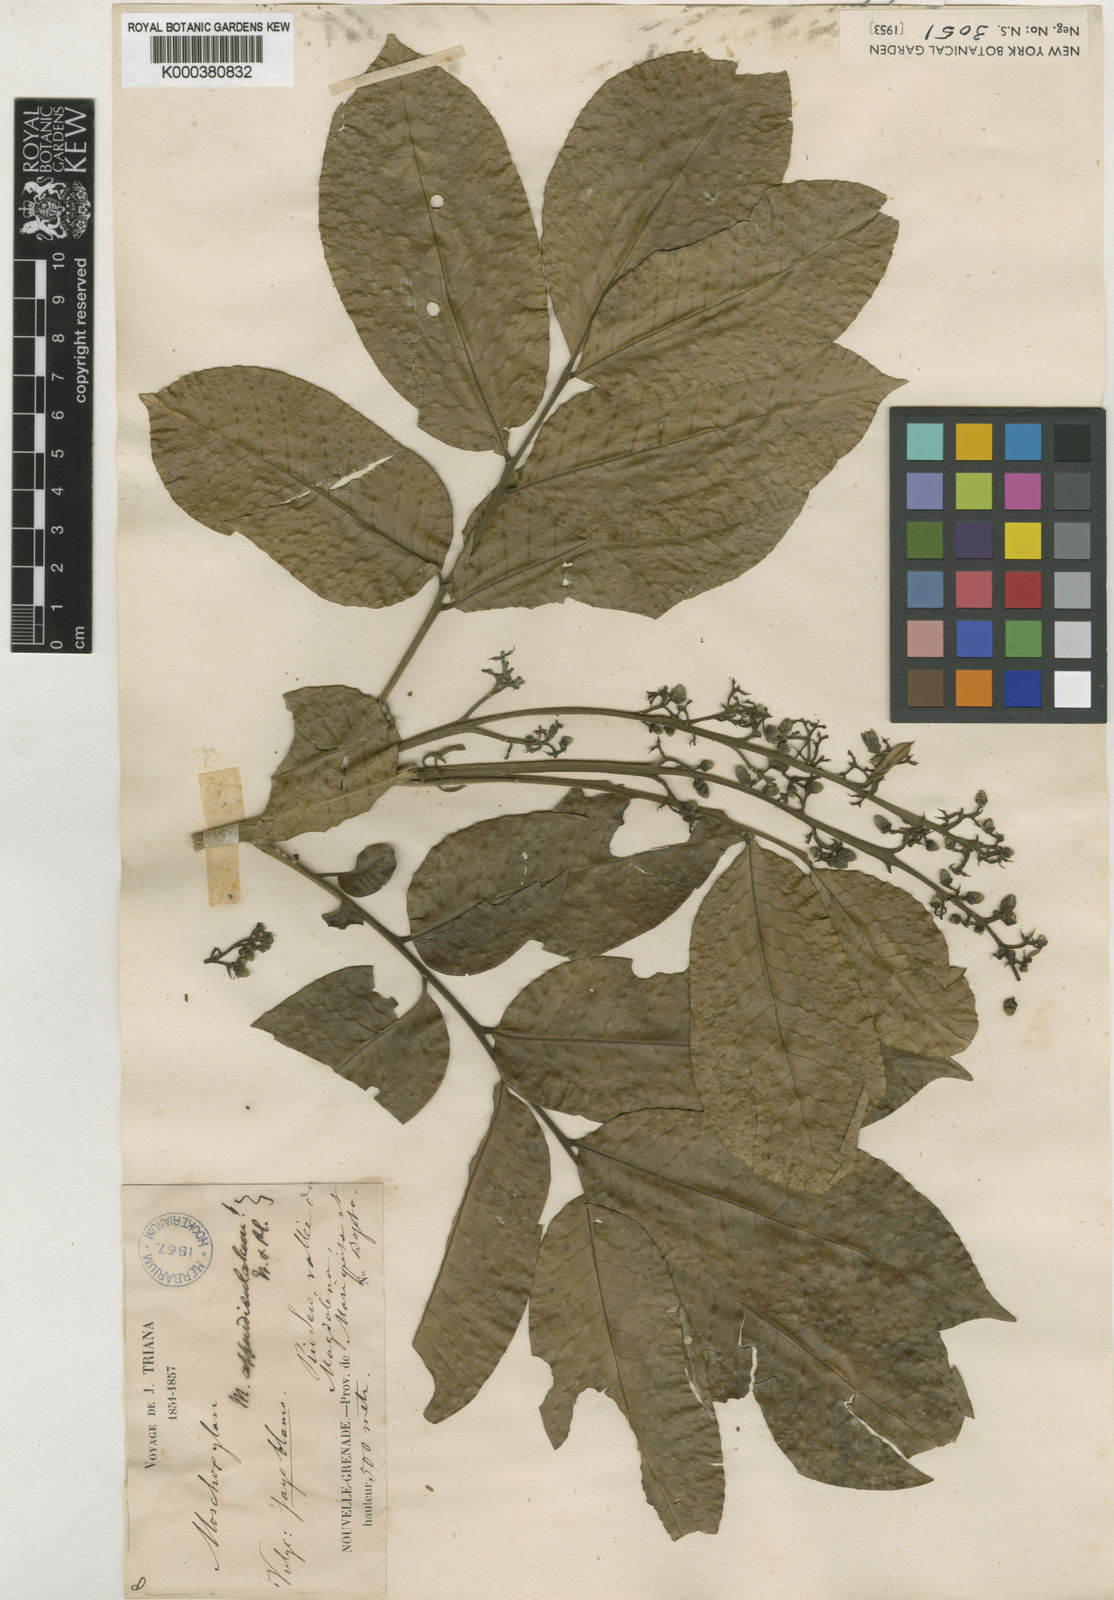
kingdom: Plantae
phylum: Tracheophyta
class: Magnoliopsida
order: Sapindales
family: Meliaceae
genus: Trichilia
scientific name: Trichilia appendiculata
